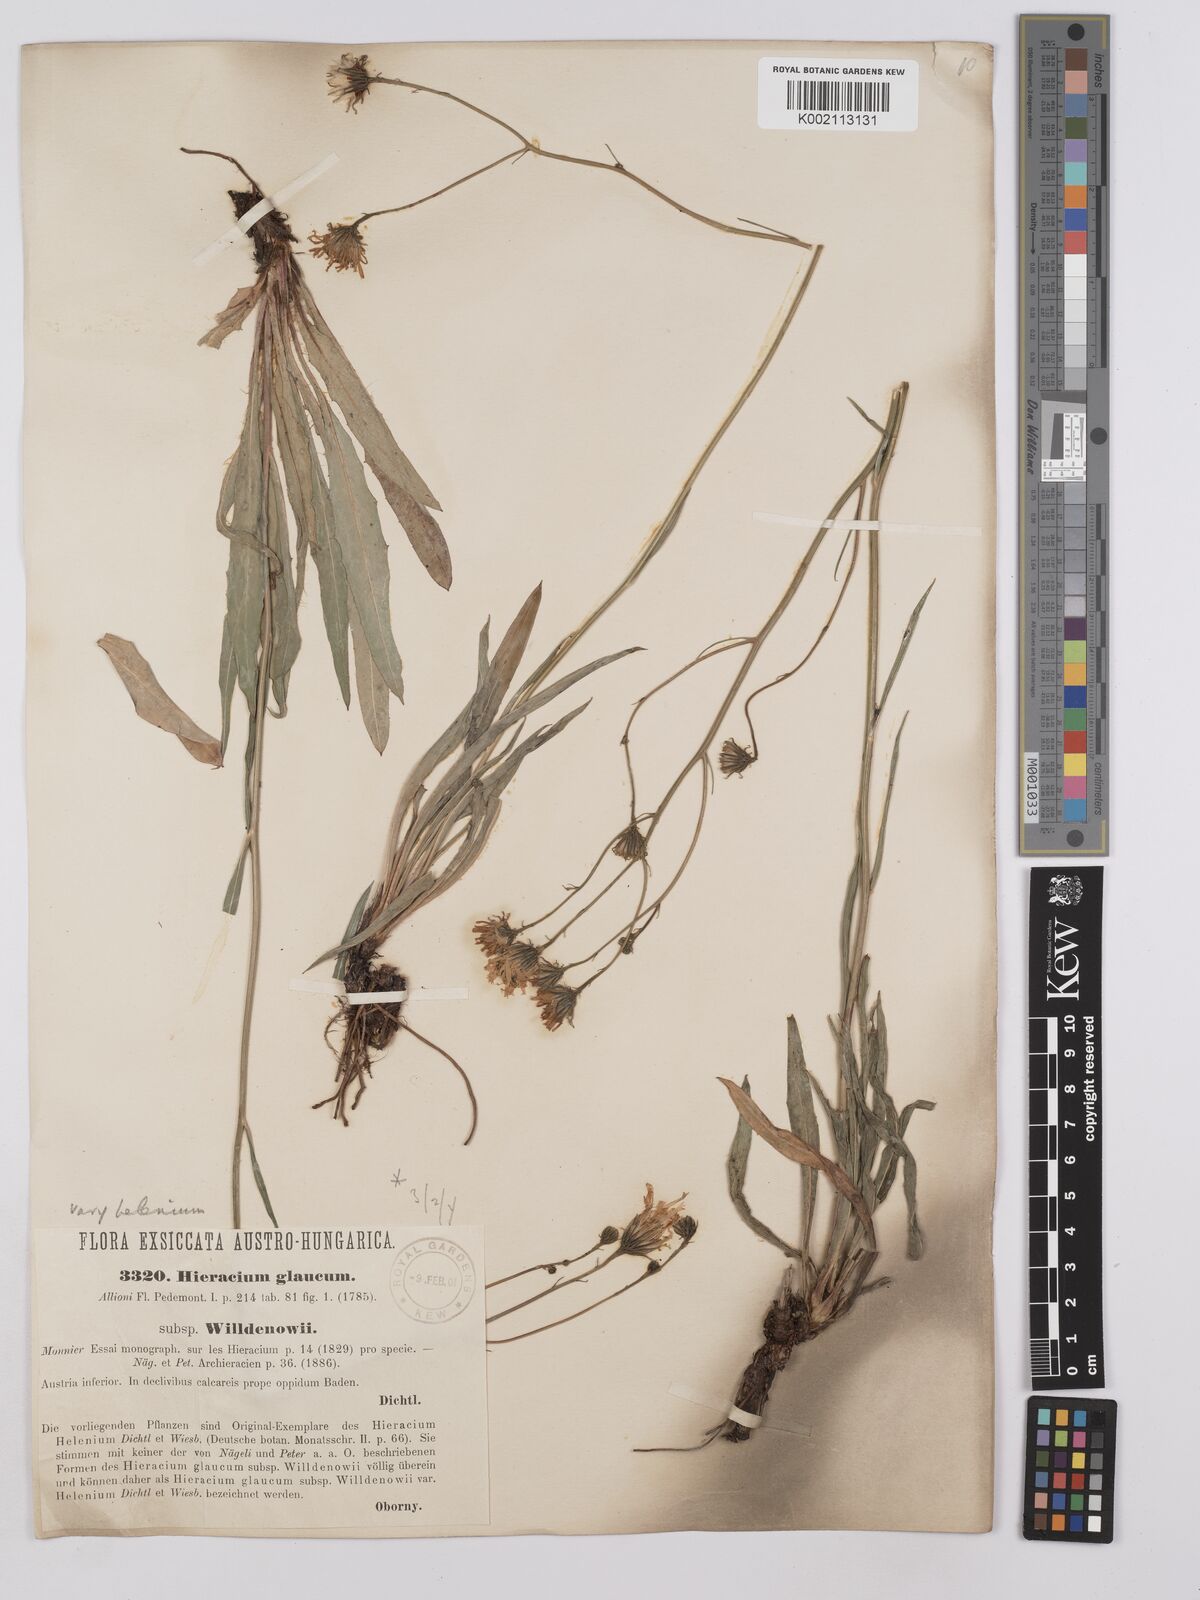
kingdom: Plantae
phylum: Tracheophyta
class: Magnoliopsida
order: Asterales
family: Asteraceae
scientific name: Asteraceae
